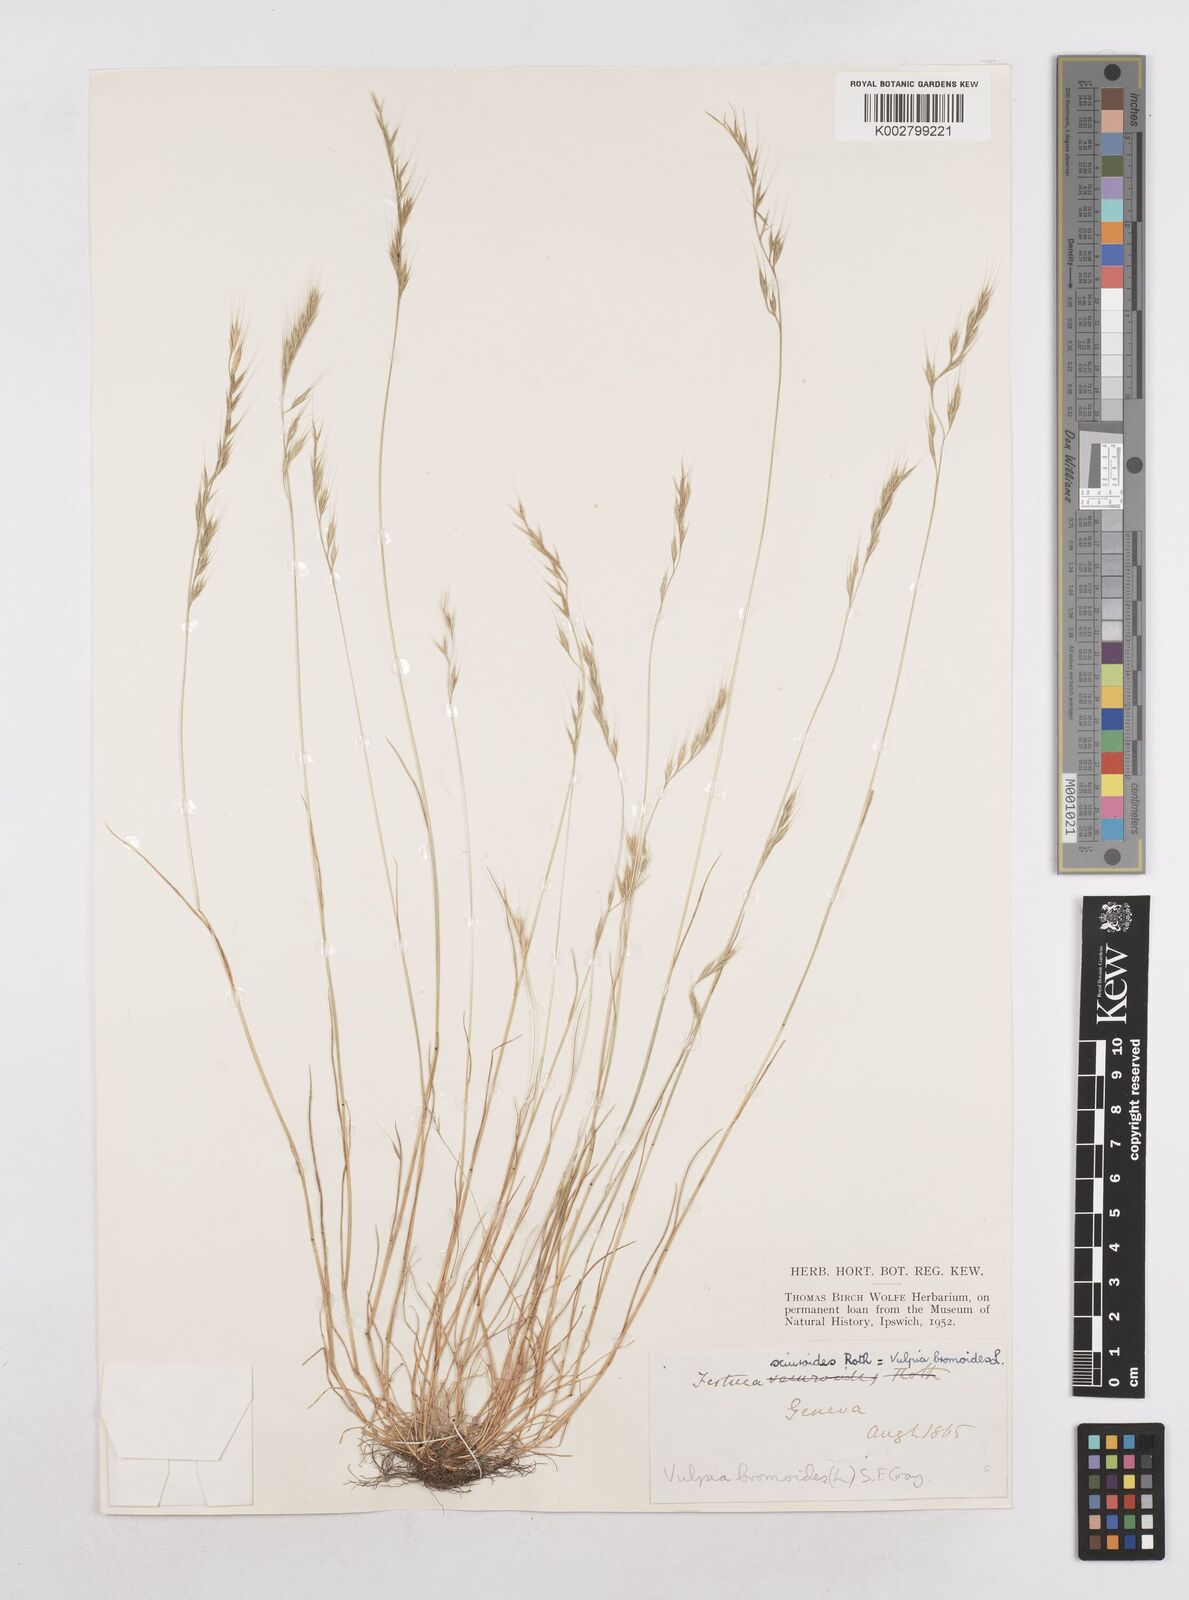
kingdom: Plantae
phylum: Tracheophyta
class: Liliopsida
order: Poales
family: Poaceae
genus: Festuca
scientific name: Festuca bromoides
